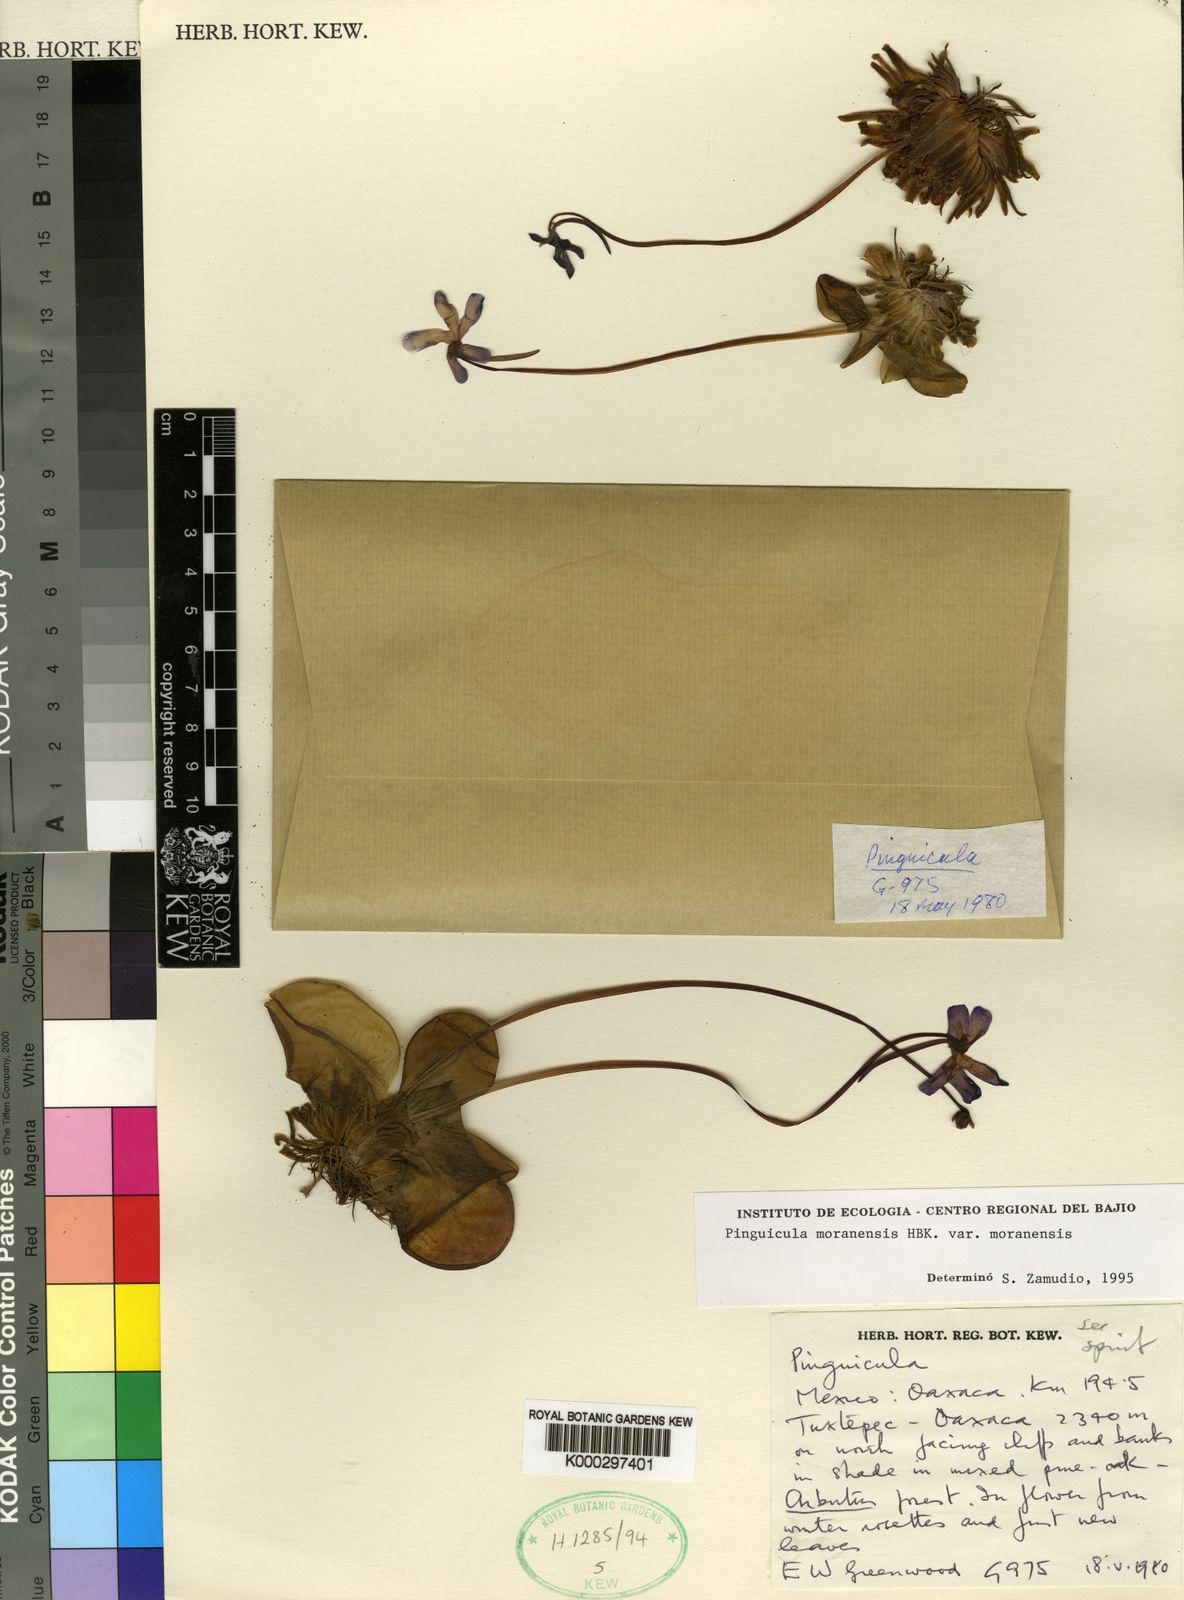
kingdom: Plantae
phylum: Tracheophyta
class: Magnoliopsida
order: Lamiales
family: Lentibulariaceae
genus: Pinguicula
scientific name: Pinguicula moranensis
